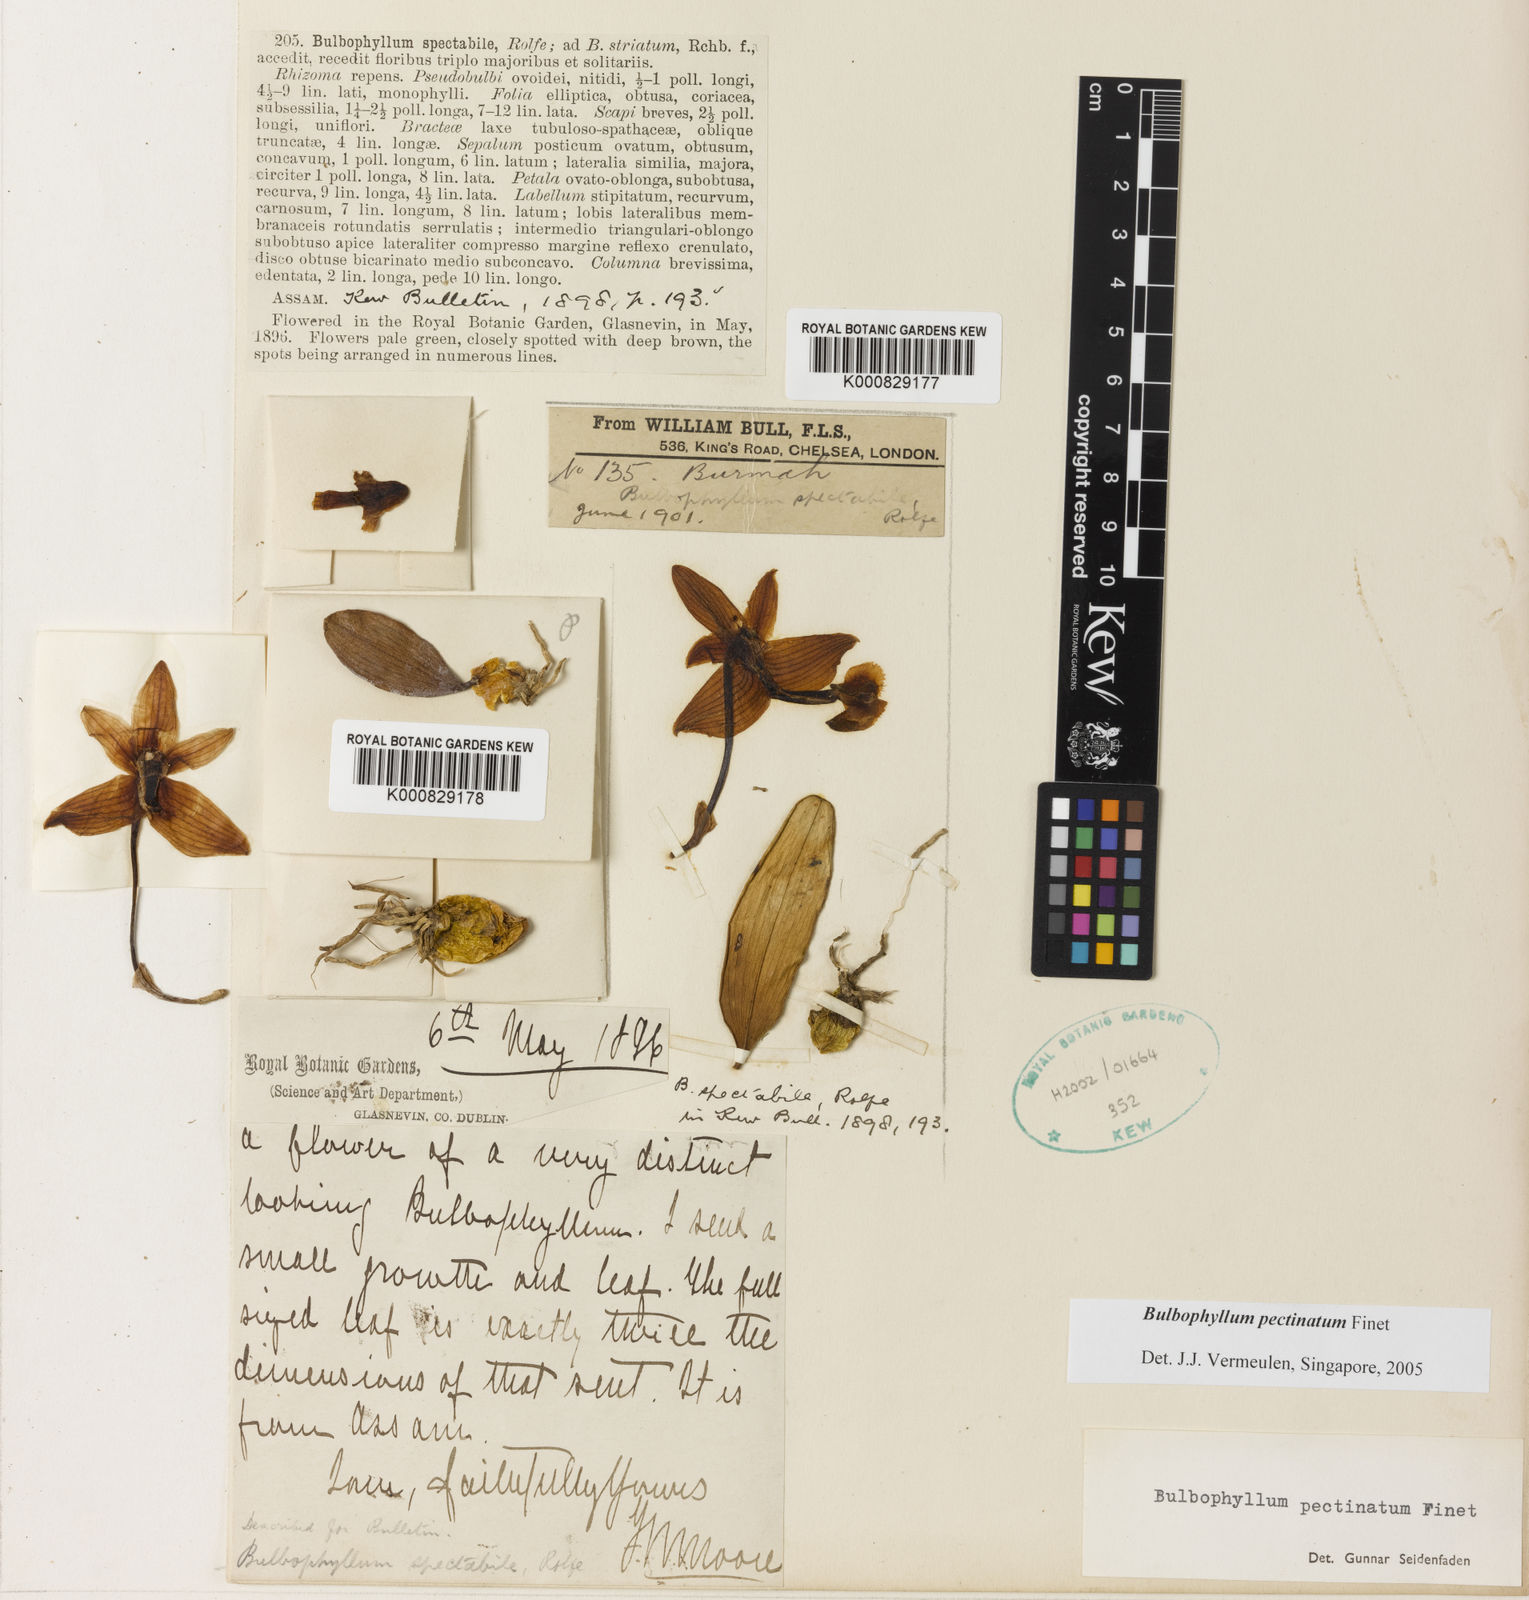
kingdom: Plantae
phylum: Tracheophyta
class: Liliopsida
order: Asparagales
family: Orchidaceae
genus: Bulbophyllum
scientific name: Bulbophyllum pectinatum
